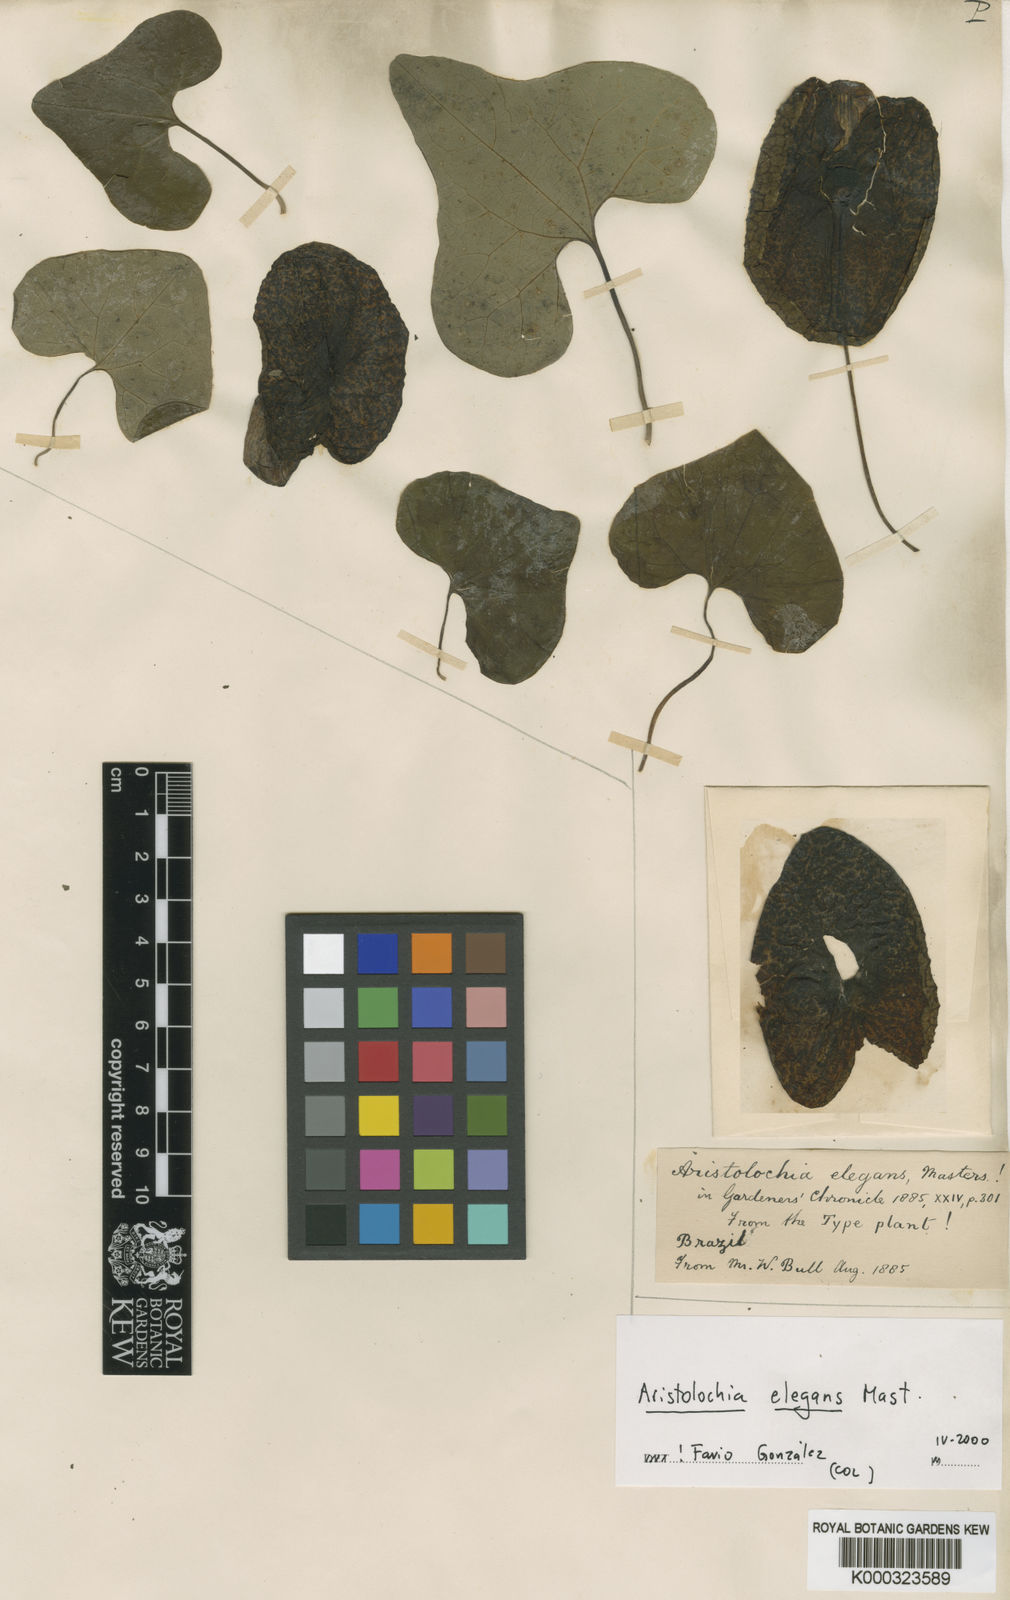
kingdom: Plantae
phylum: Tracheophyta
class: Magnoliopsida
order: Piperales
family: Aristolochiaceae
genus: Aristolochia
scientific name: Aristolochia littoralis
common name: Duck
